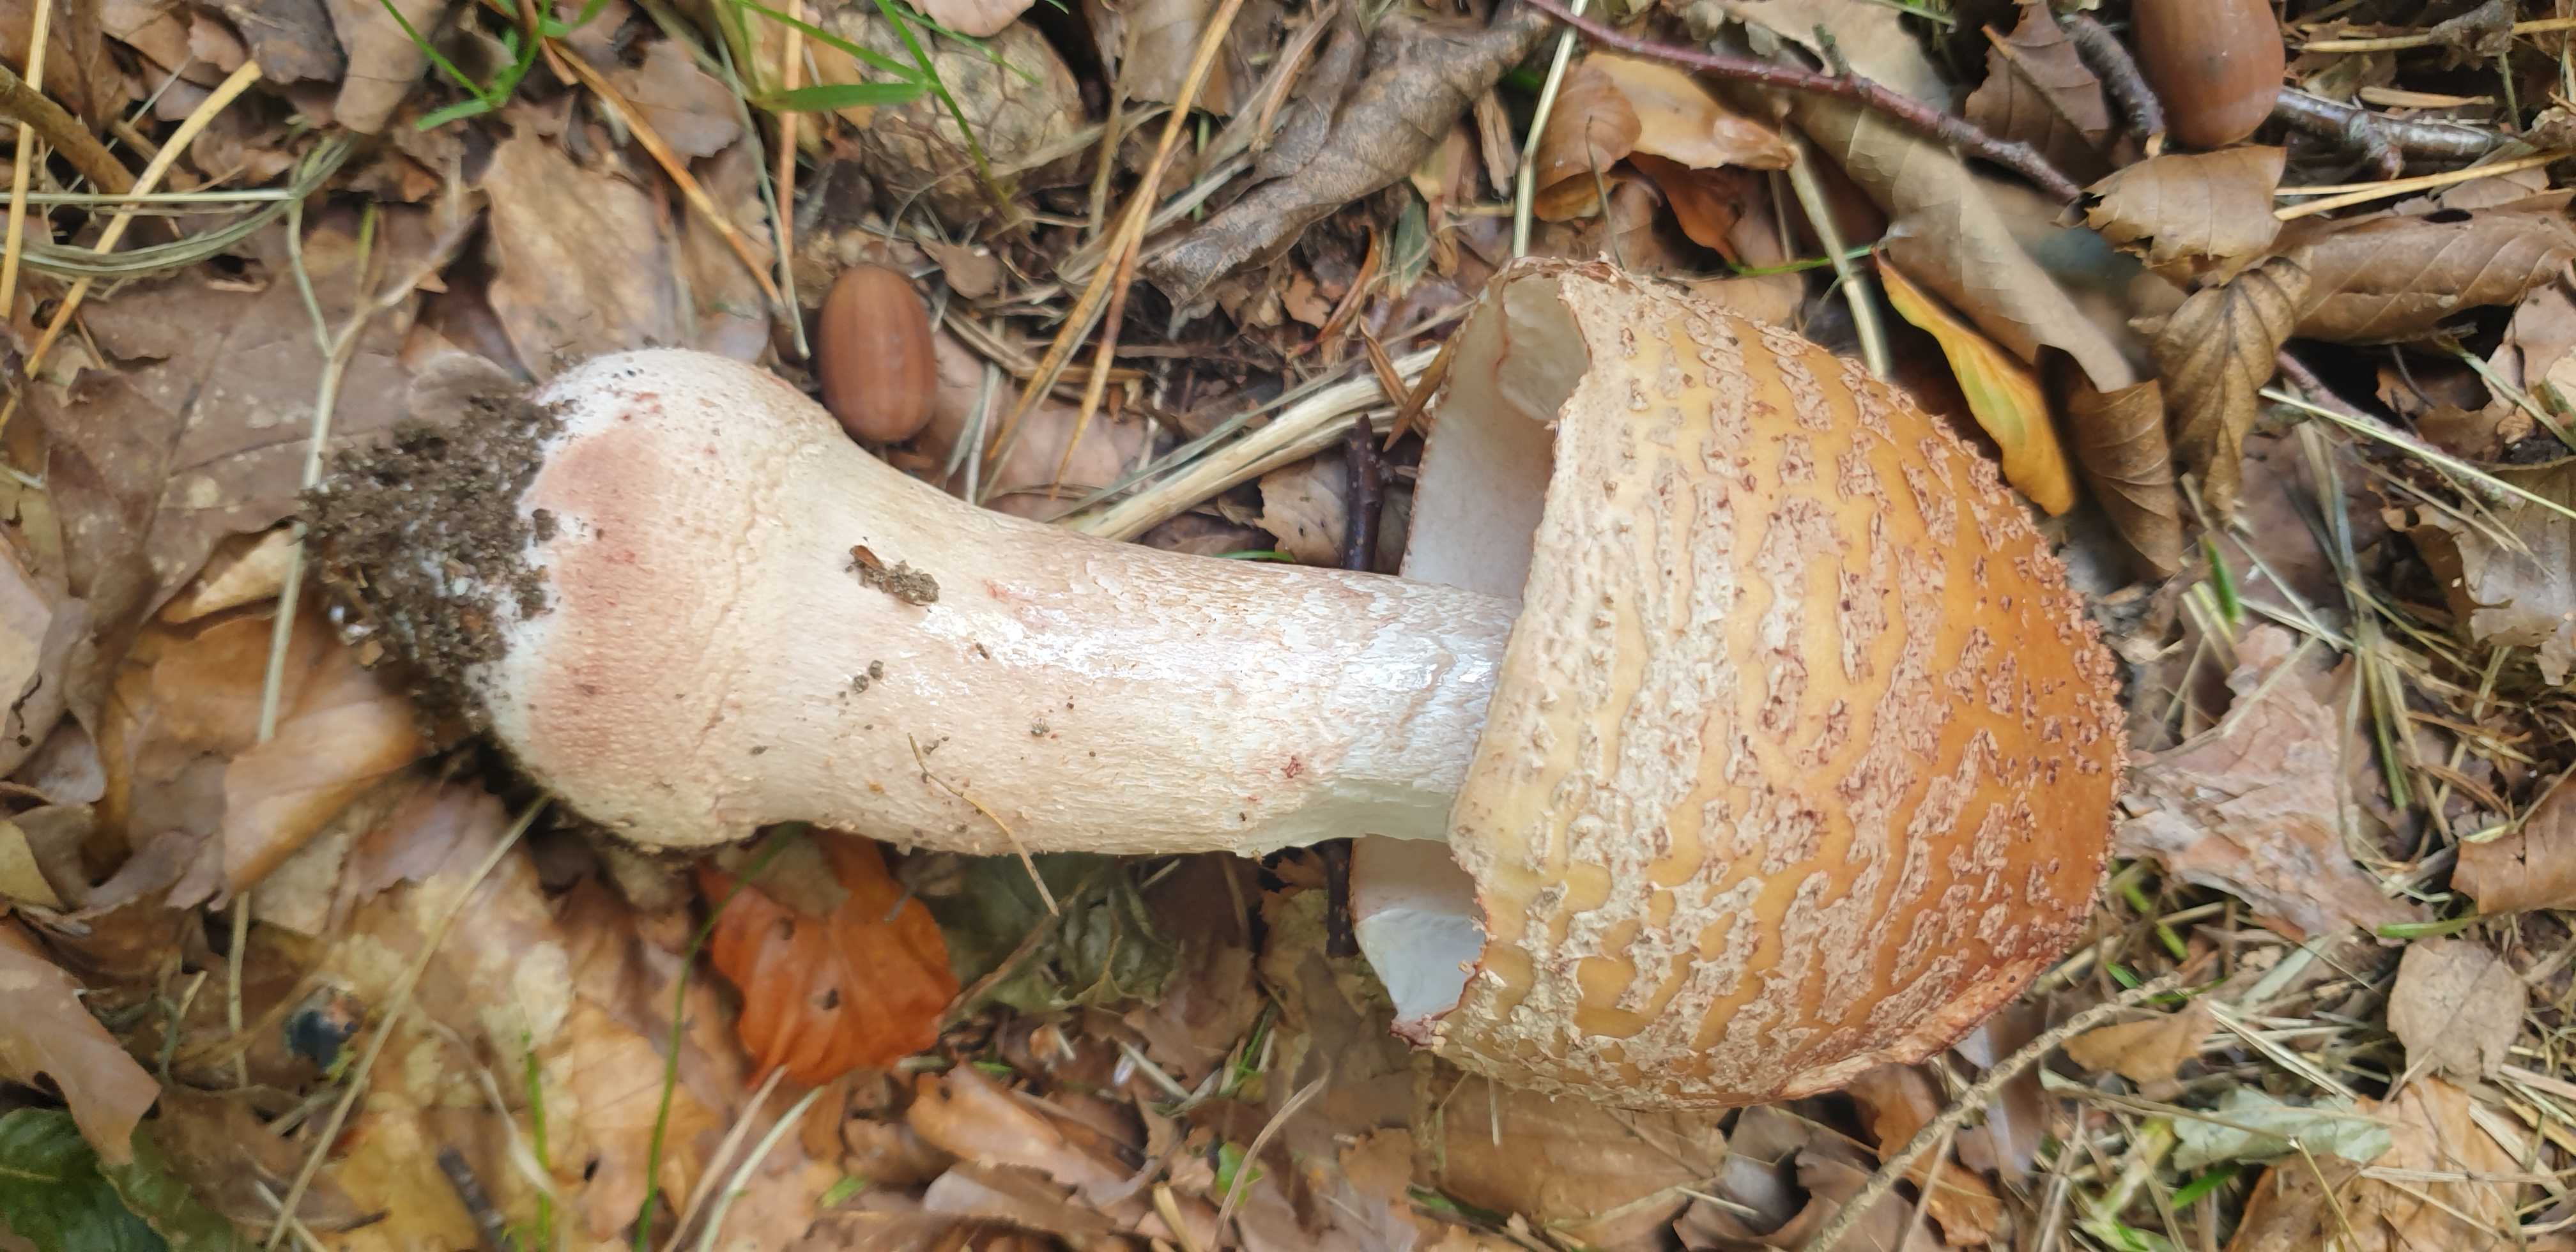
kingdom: Fungi
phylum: Basidiomycota
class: Agaricomycetes
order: Agaricales
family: Amanitaceae
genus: Amanita
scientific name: Amanita rubescens
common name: rødmende fluesvamp
